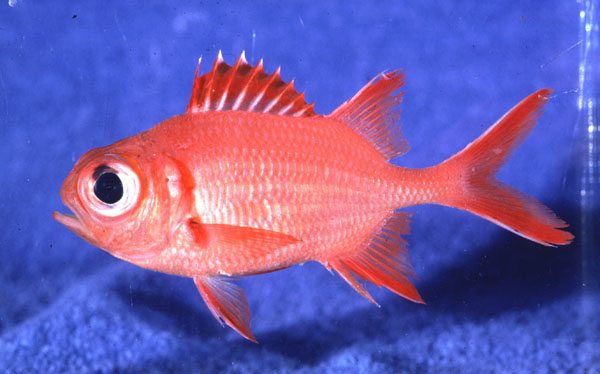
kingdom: Animalia
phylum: Chordata
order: Beryciformes
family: Holocentridae
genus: Myripristis
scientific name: Myripristis vittata
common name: Immaculate squirrelfish
